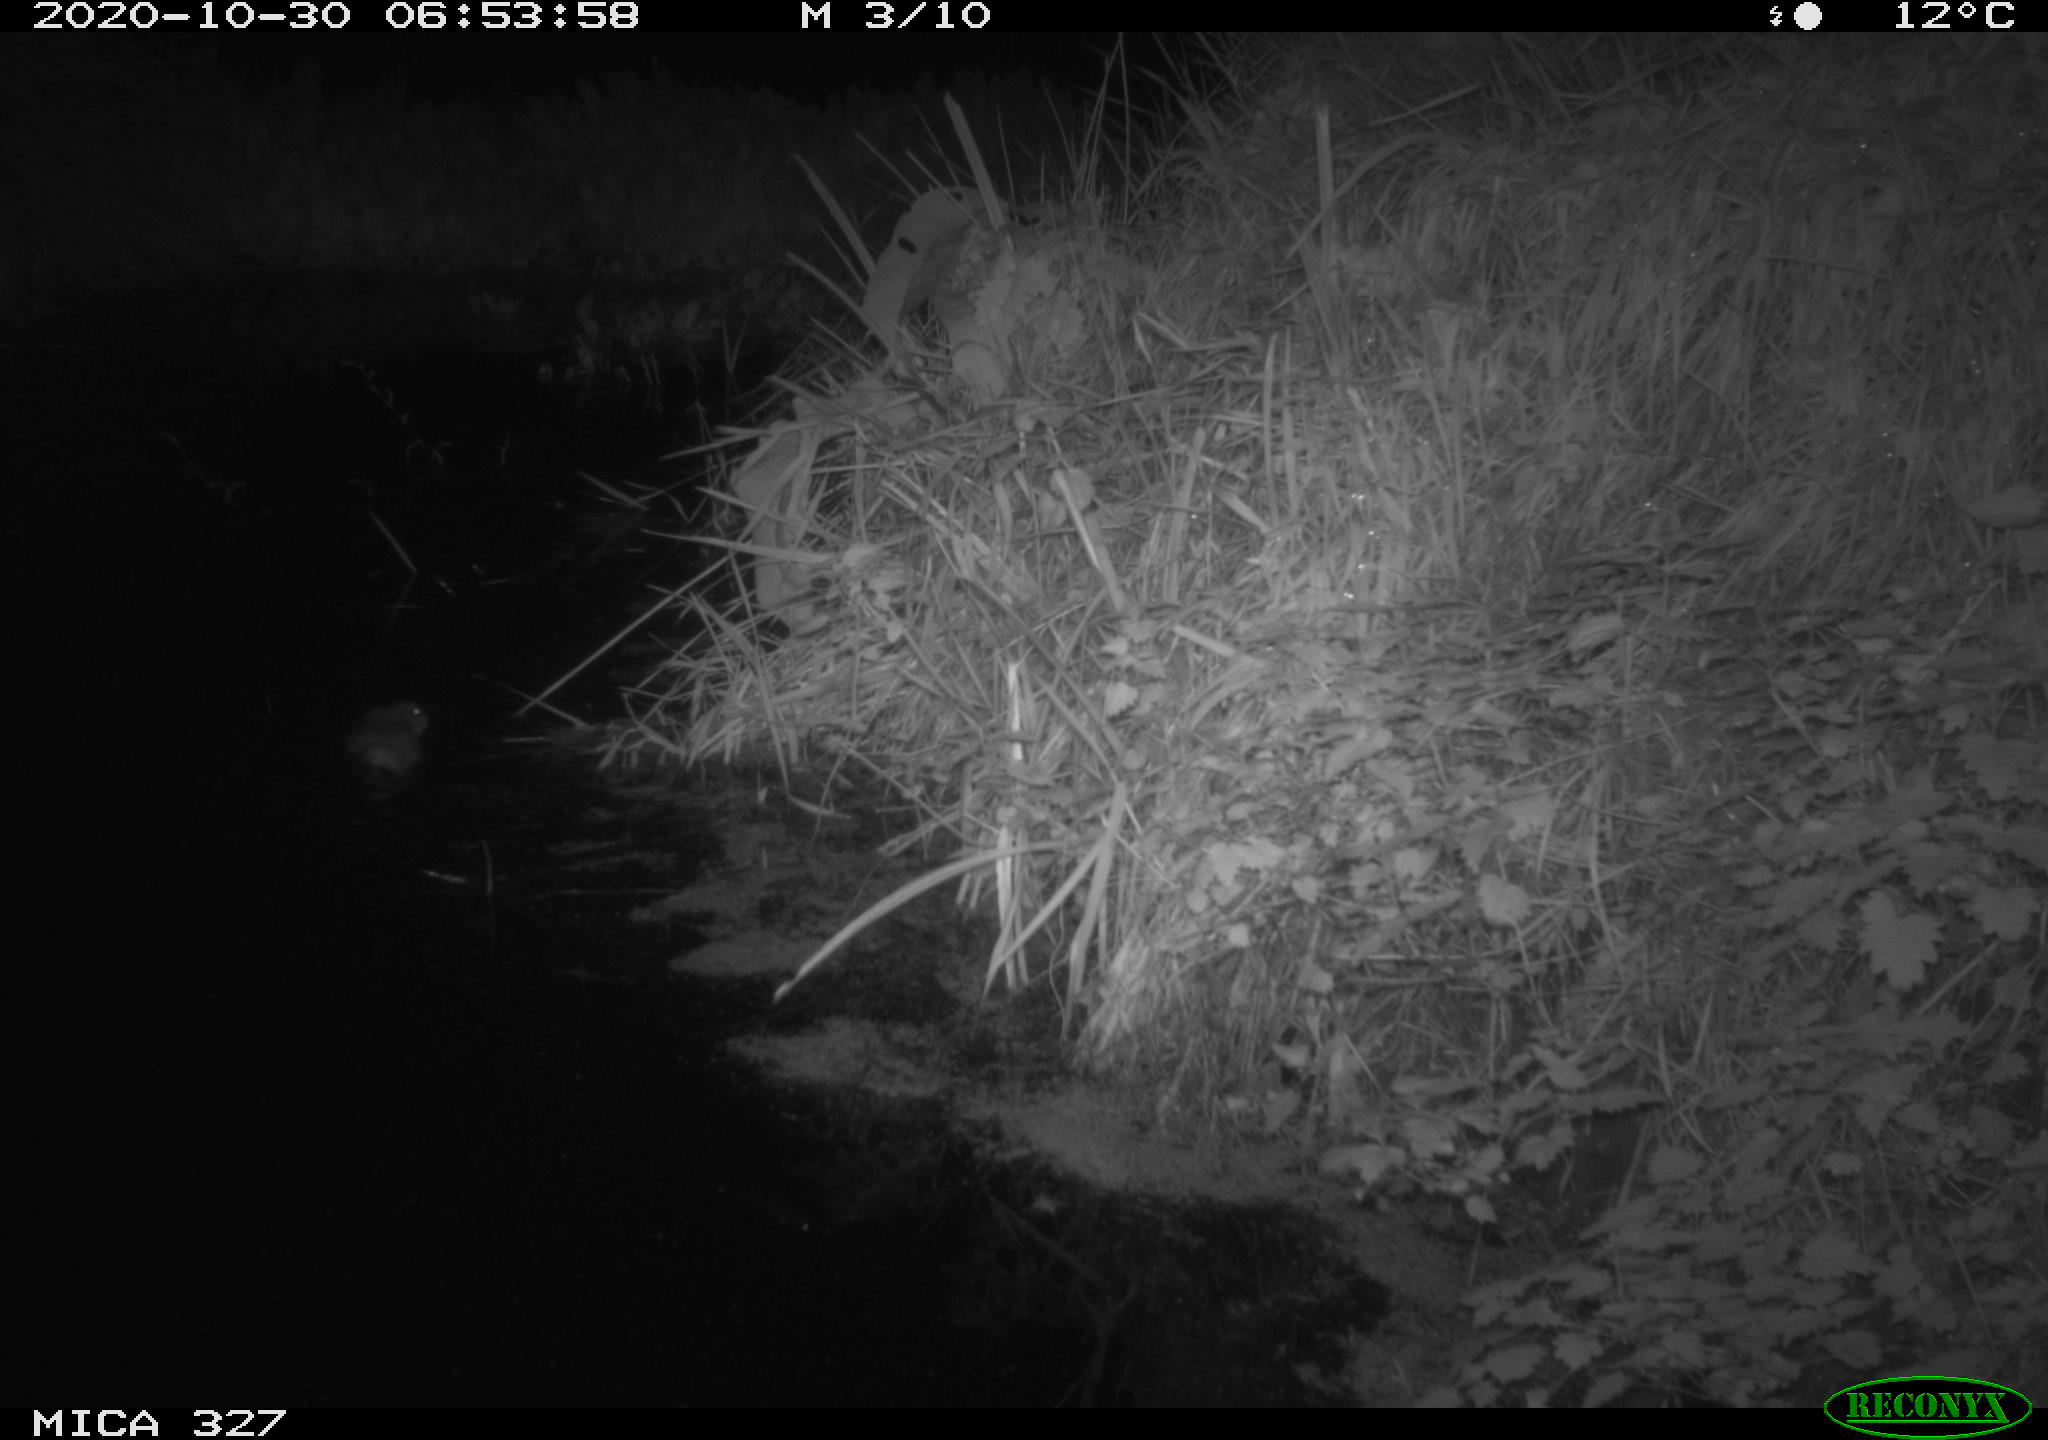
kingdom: Animalia
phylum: Chordata
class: Mammalia
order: Rodentia
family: Myocastoridae
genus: Myocastor
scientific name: Myocastor coypus
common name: Coypu
